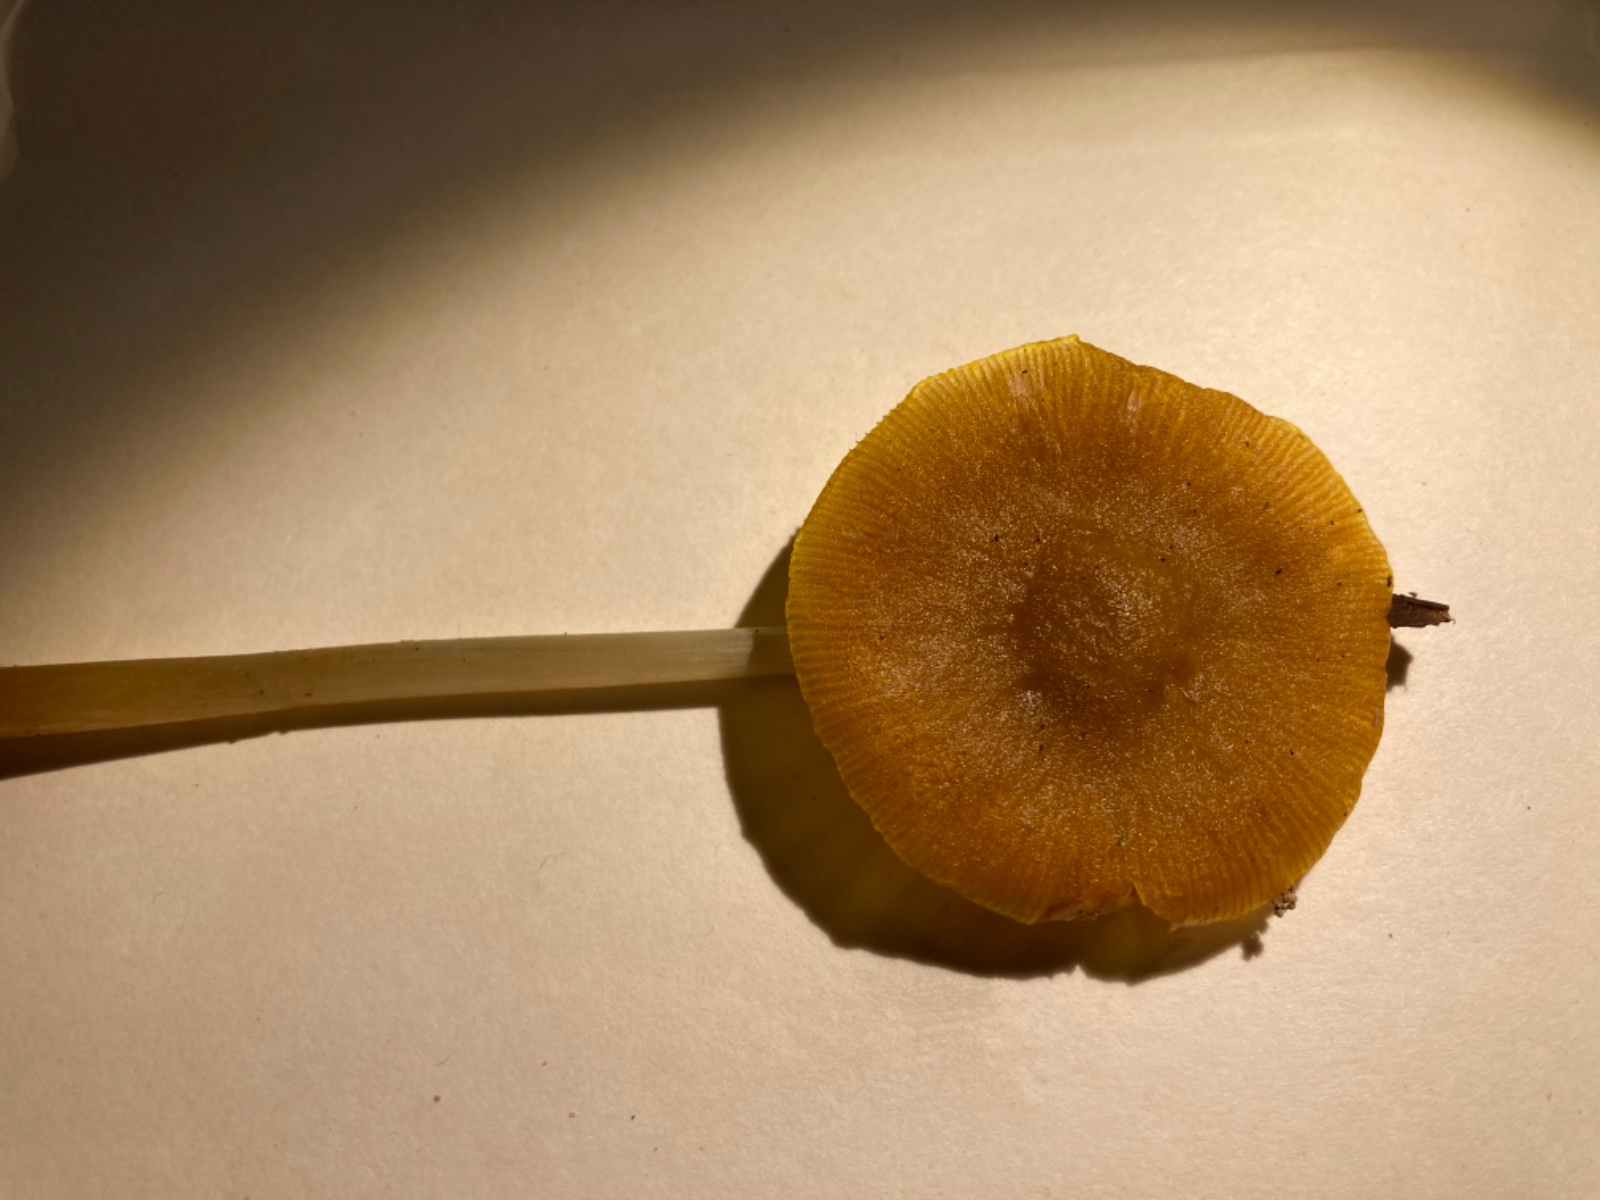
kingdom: Fungi
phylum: Basidiomycota
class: Agaricomycetes
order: Agaricales
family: Pluteaceae
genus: Pluteus
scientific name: Pluteus leoninus
